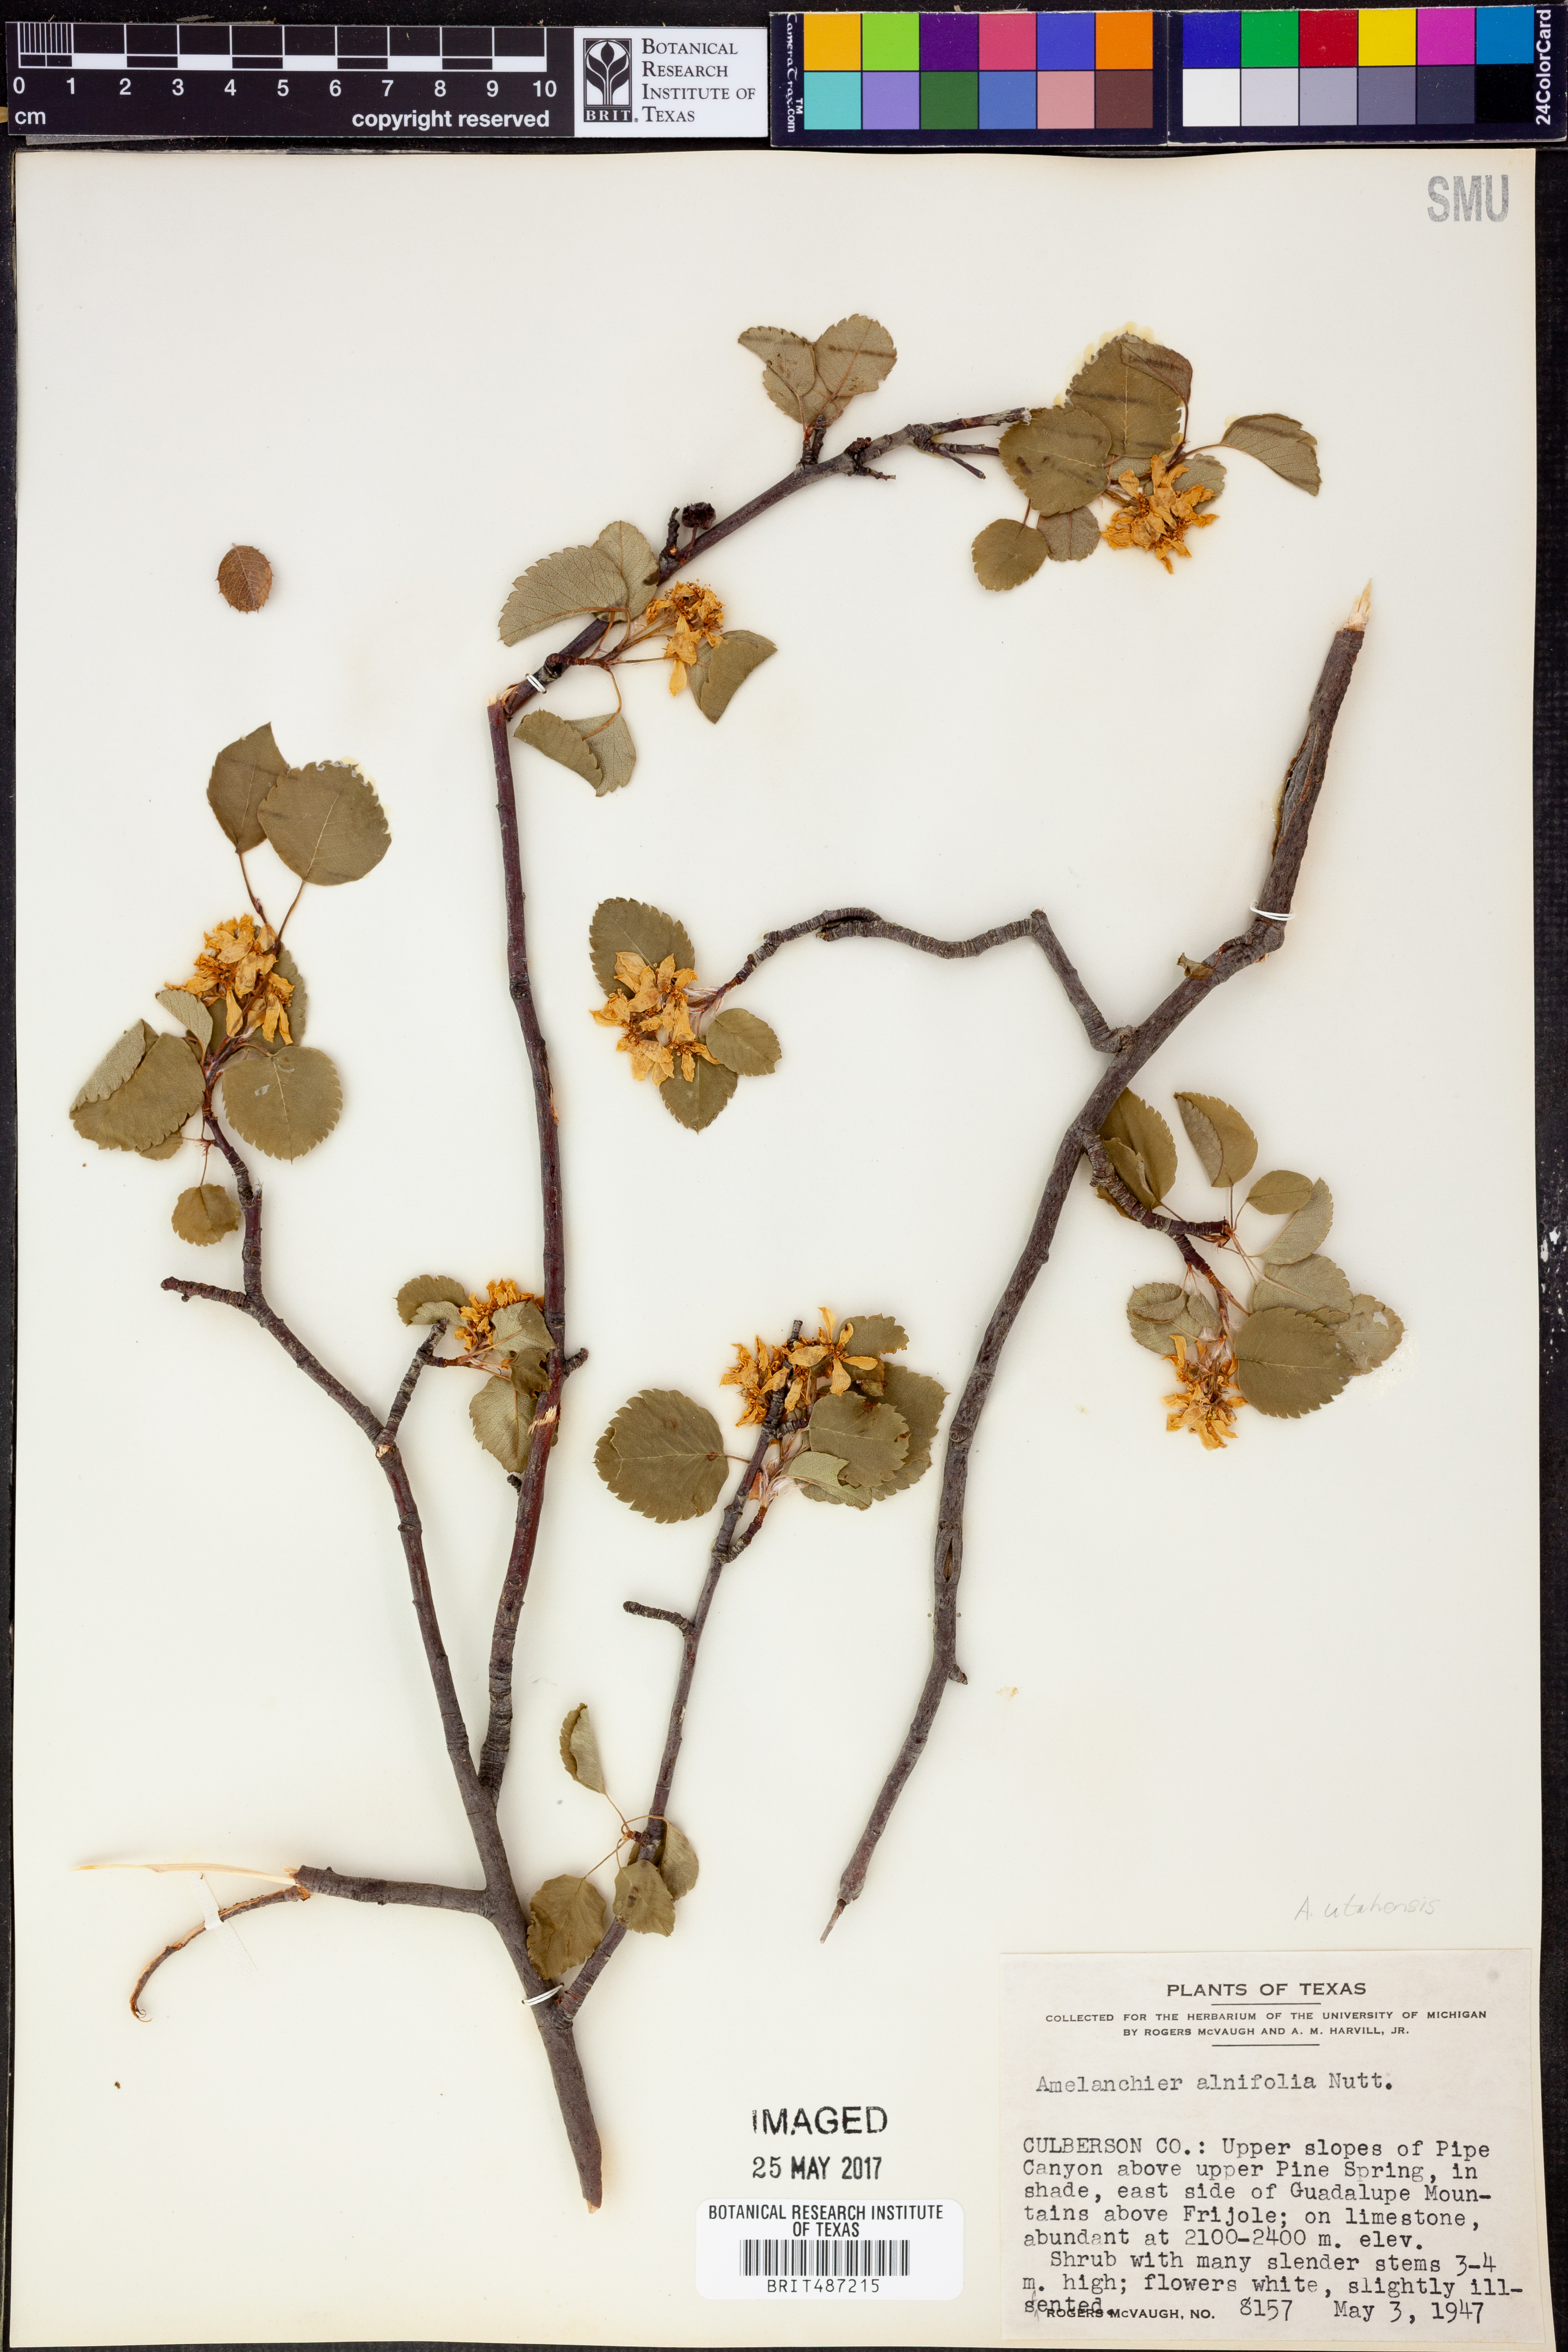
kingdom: Plantae
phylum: Tracheophyta
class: Magnoliopsida
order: Rosales
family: Rosaceae
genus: Amelanchier
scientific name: Amelanchier alnifolia
